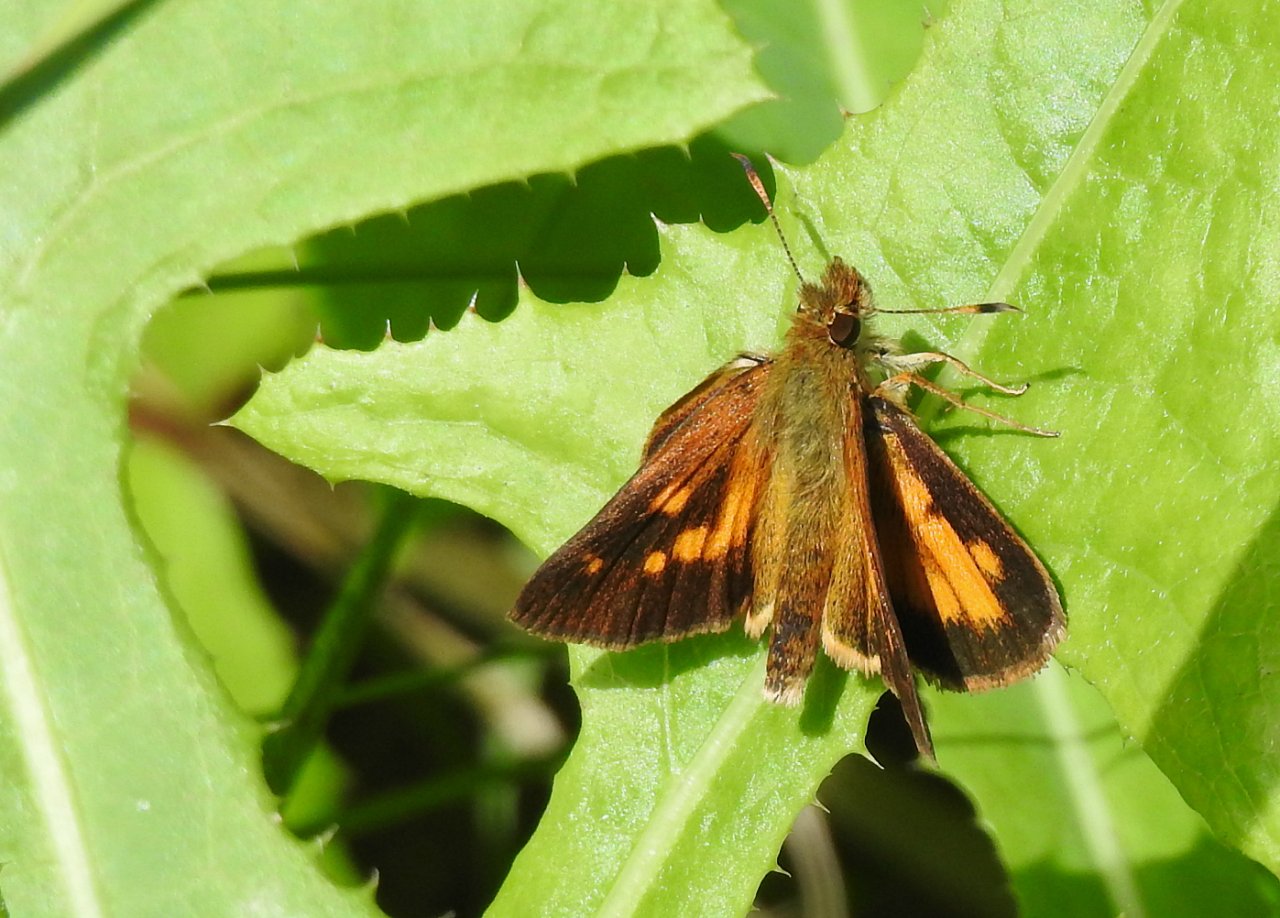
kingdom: Animalia
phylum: Arthropoda
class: Insecta
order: Lepidoptera
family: Hesperiidae
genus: Poanes
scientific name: Poanes viator
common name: Broad-winged Skipper
